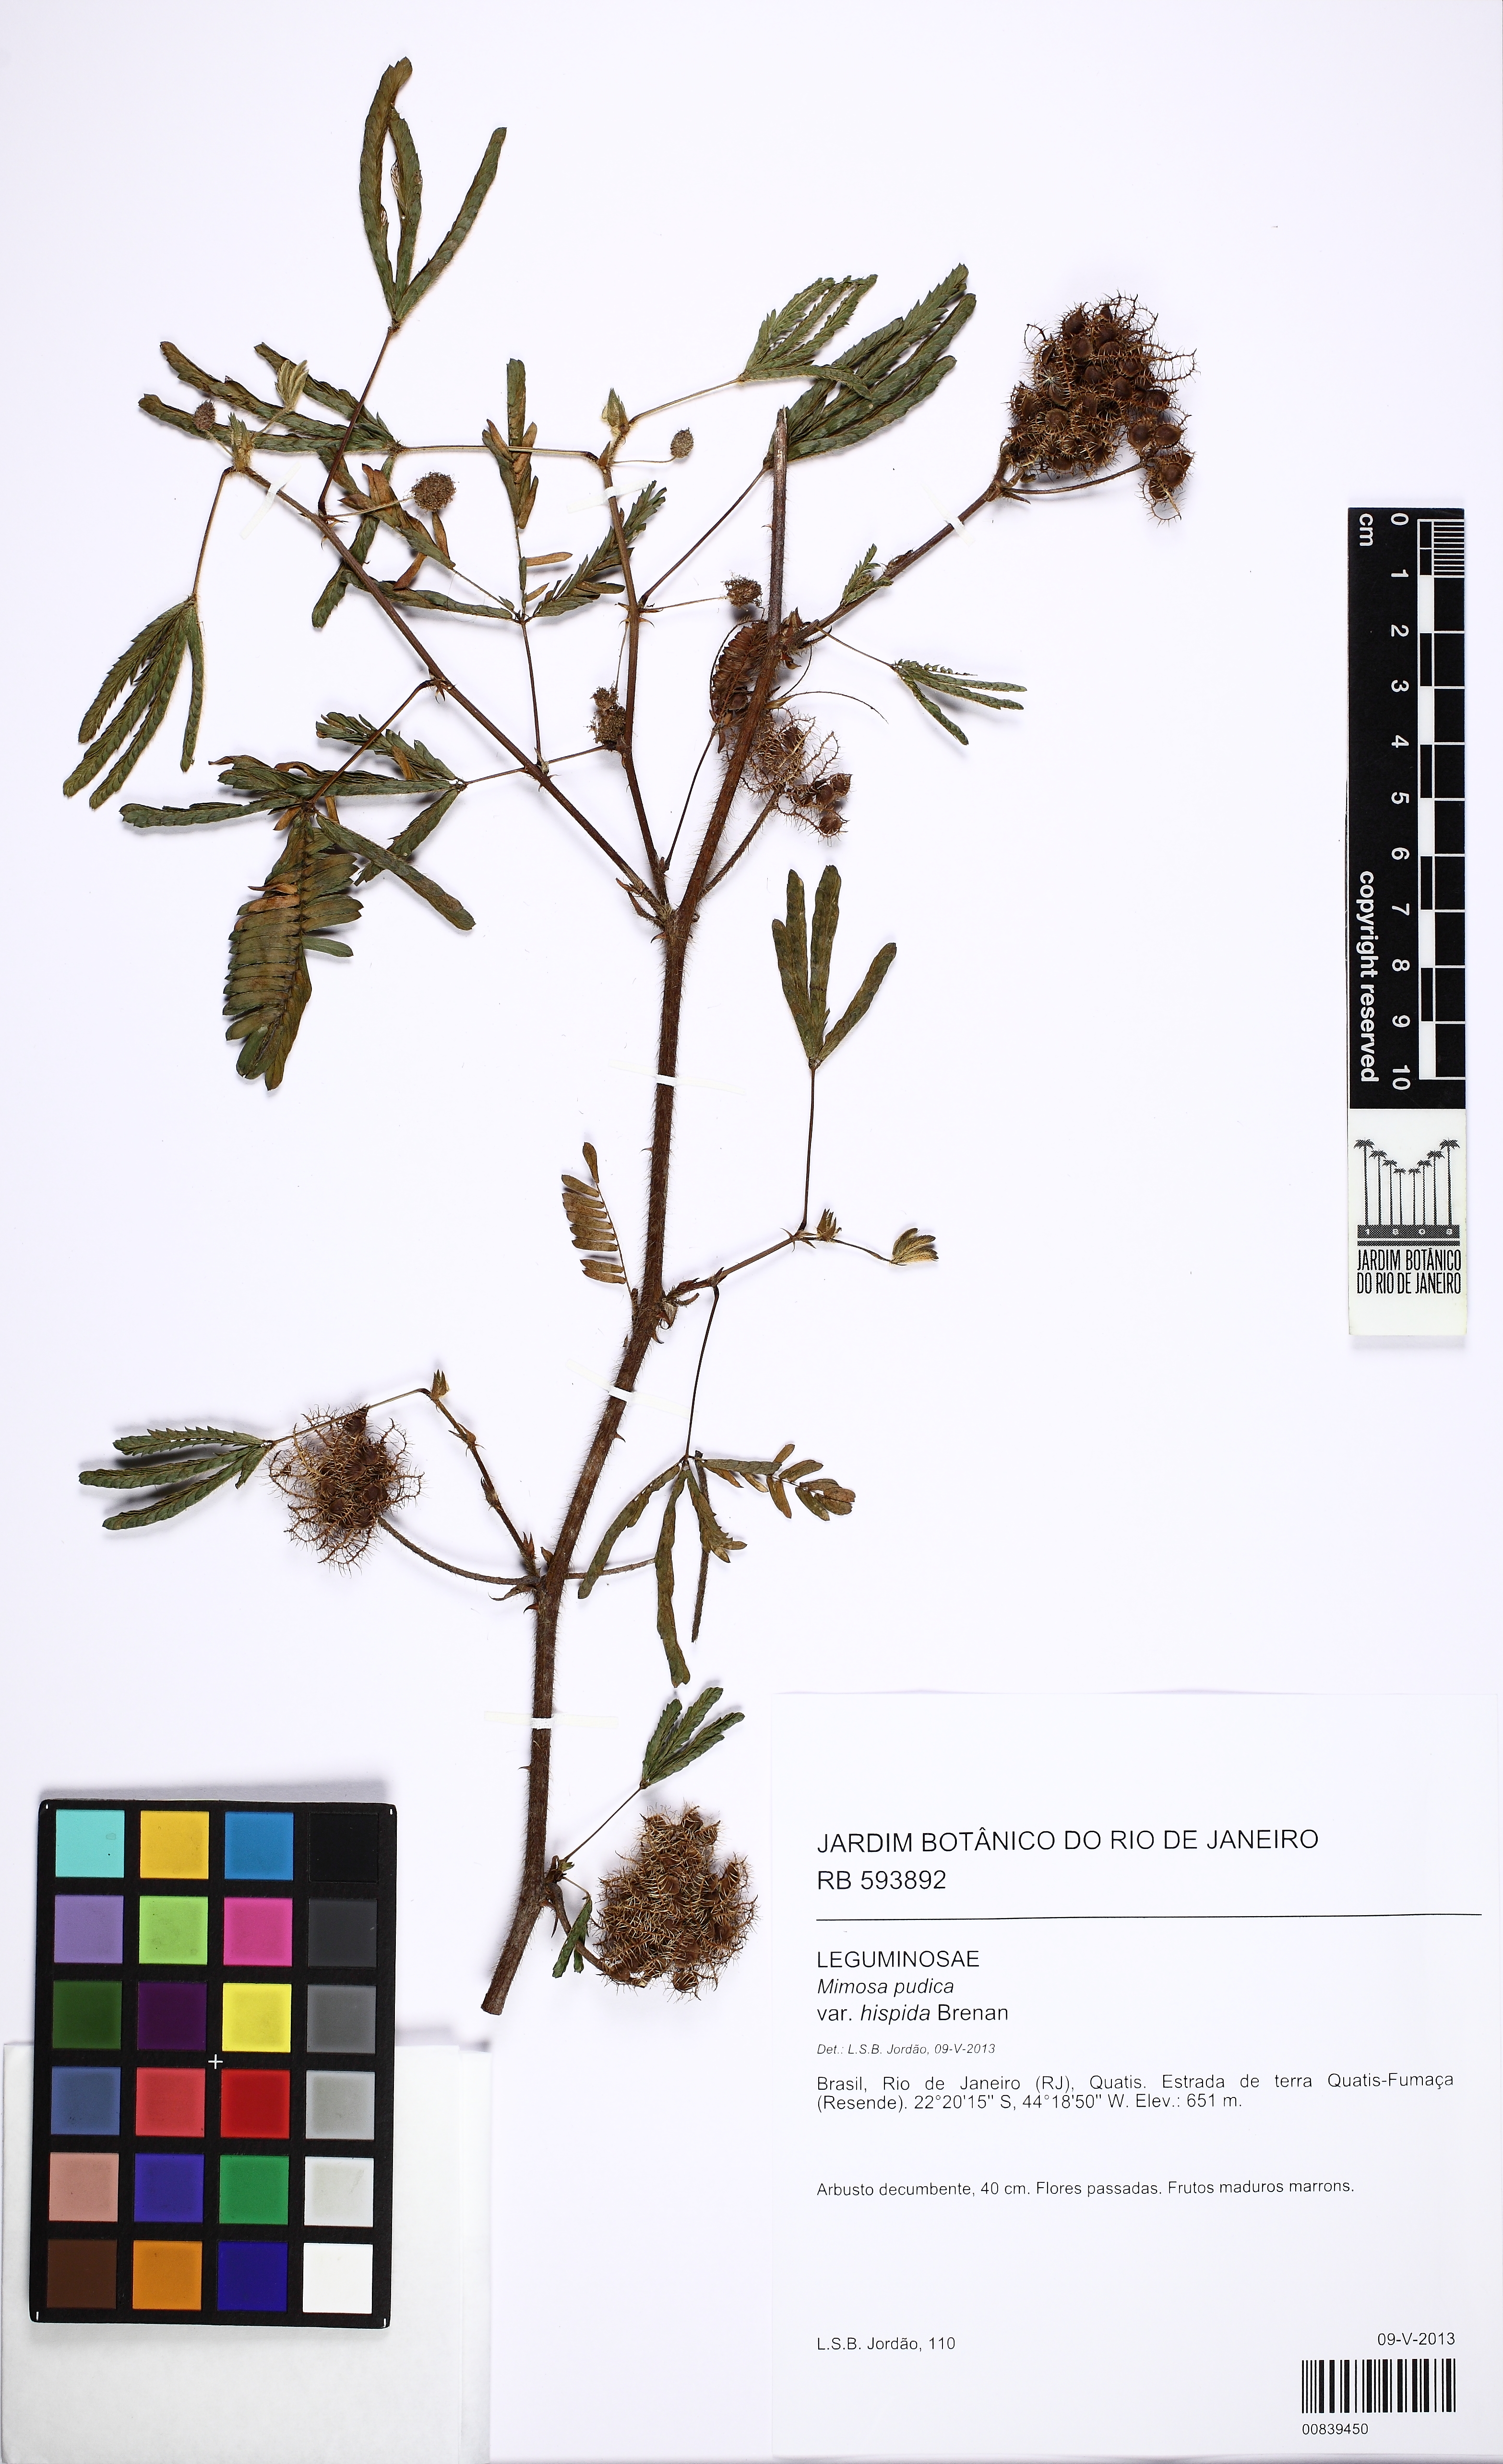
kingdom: Plantae
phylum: Tracheophyta
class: Magnoliopsida
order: Fabales
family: Fabaceae
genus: Mimosa
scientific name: Mimosa pudica
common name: Sensitive plant
